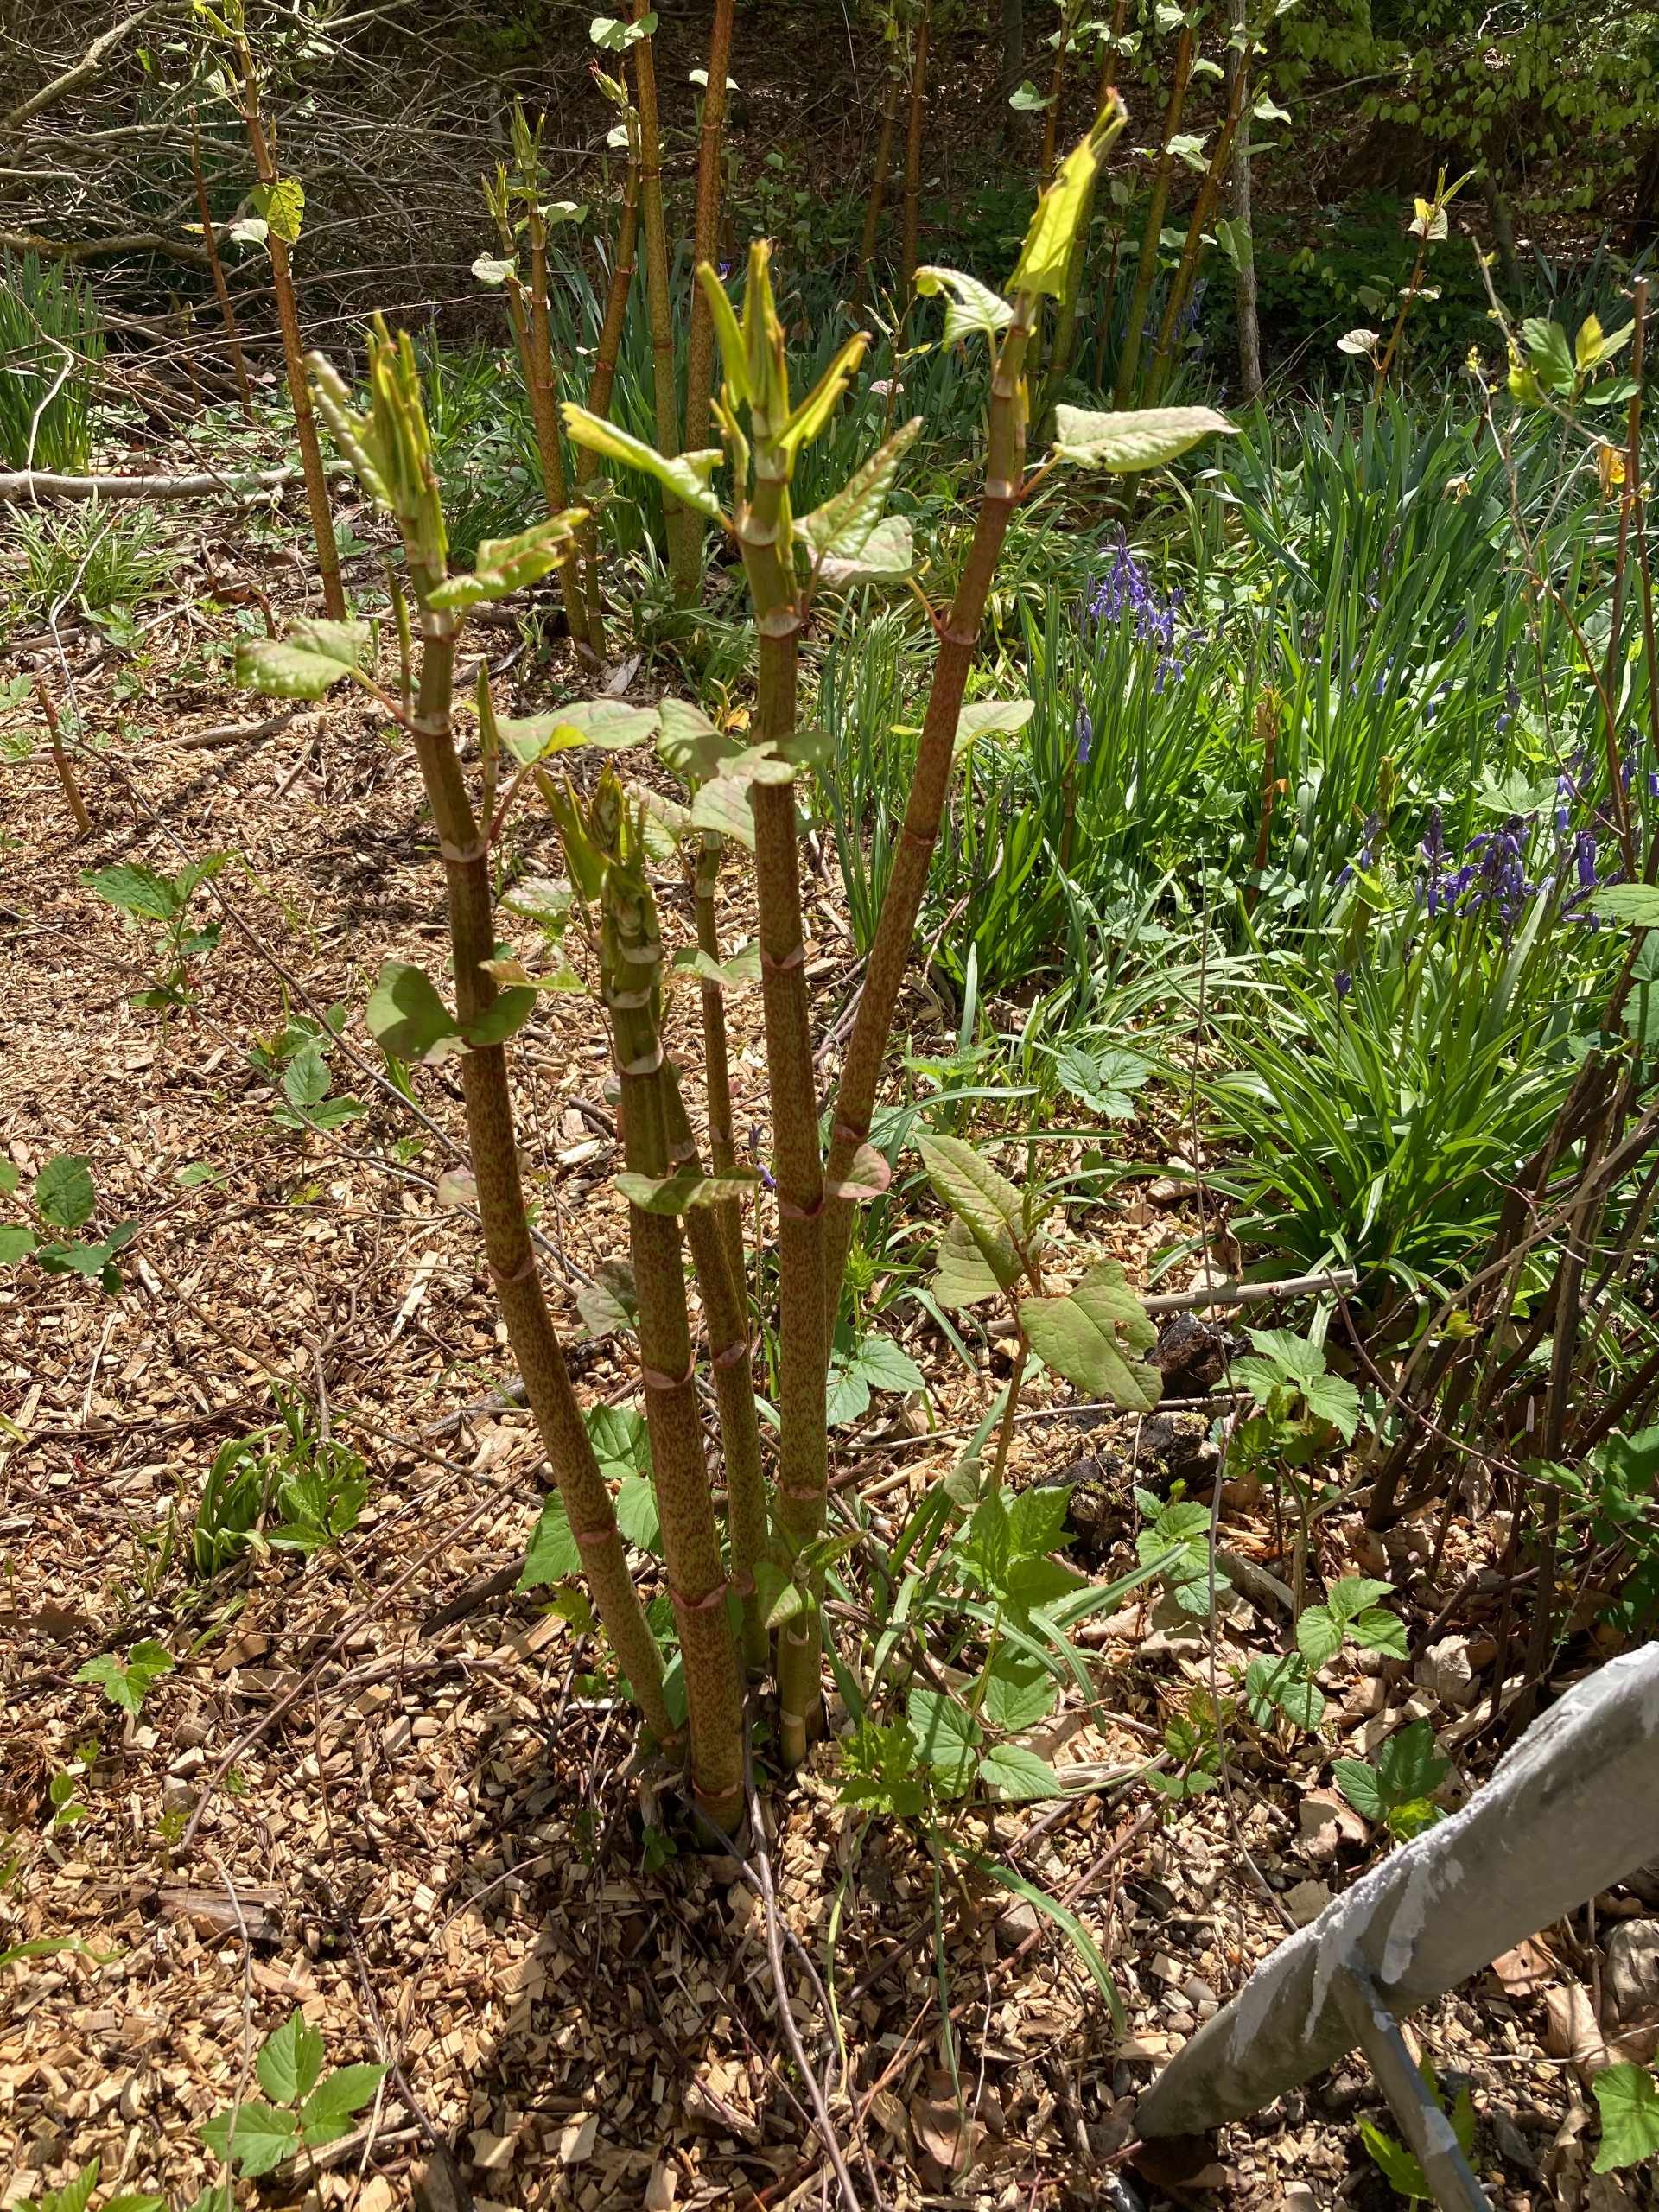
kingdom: Plantae
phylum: Tracheophyta
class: Magnoliopsida
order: Caryophyllales
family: Polygonaceae
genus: Reynoutria
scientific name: Reynoutria japonica
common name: Japan-pileurt
